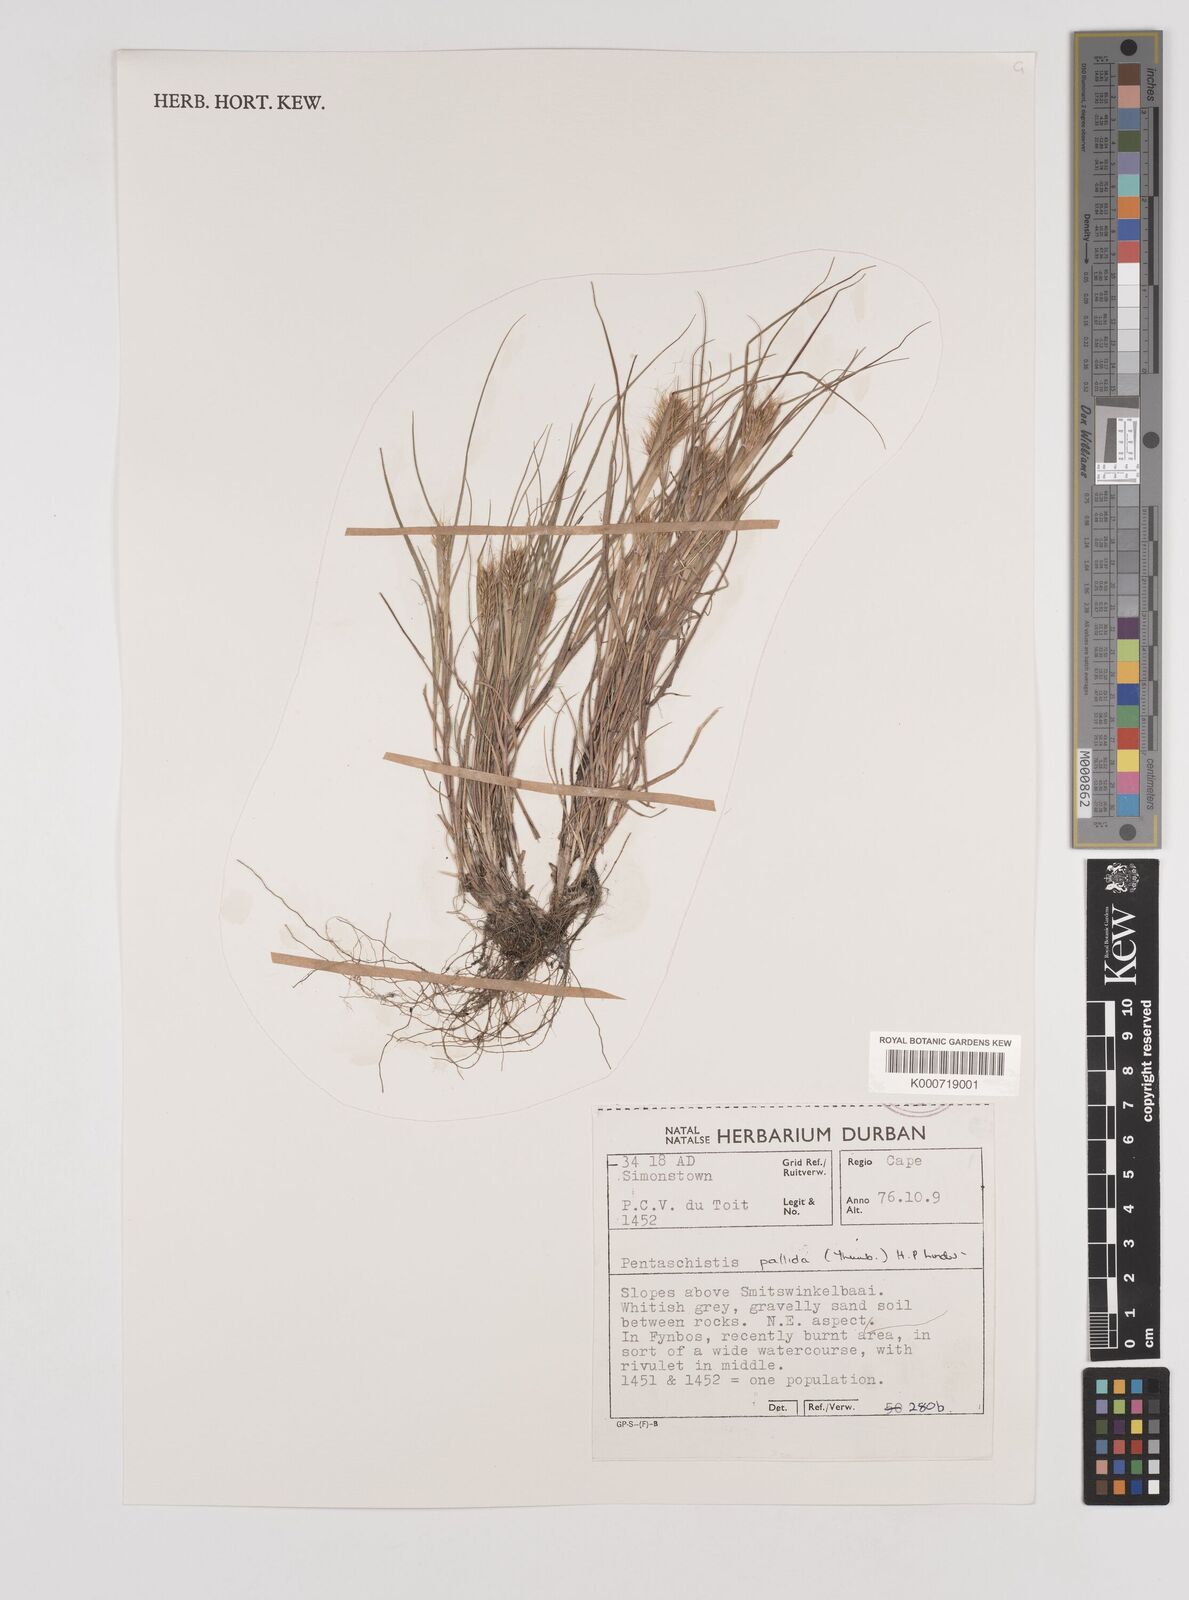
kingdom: Plantae
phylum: Tracheophyta
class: Liliopsida
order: Poales
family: Poaceae
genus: Pentameris
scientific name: Pentameris pallida
